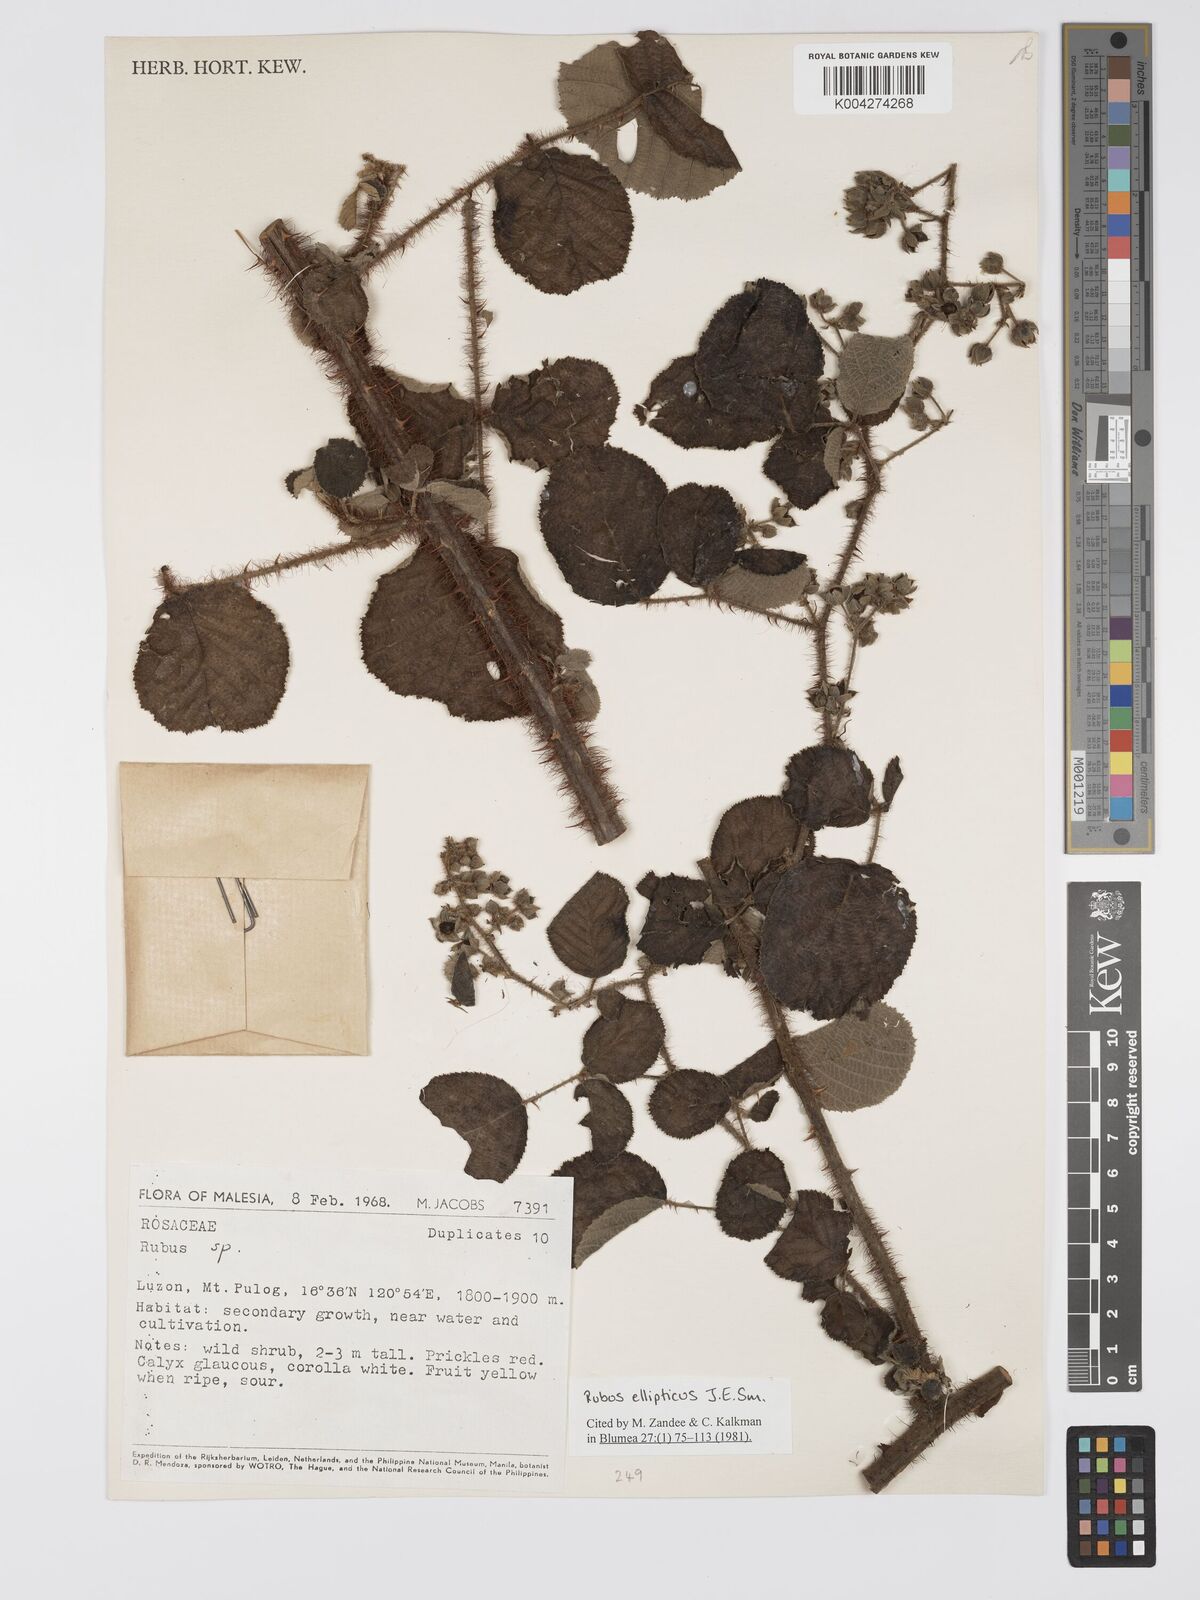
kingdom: Plantae
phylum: Tracheophyta
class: Magnoliopsida
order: Rosales
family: Rosaceae
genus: Rubus
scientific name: Rubus ellipticus
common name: Cheeseberry
